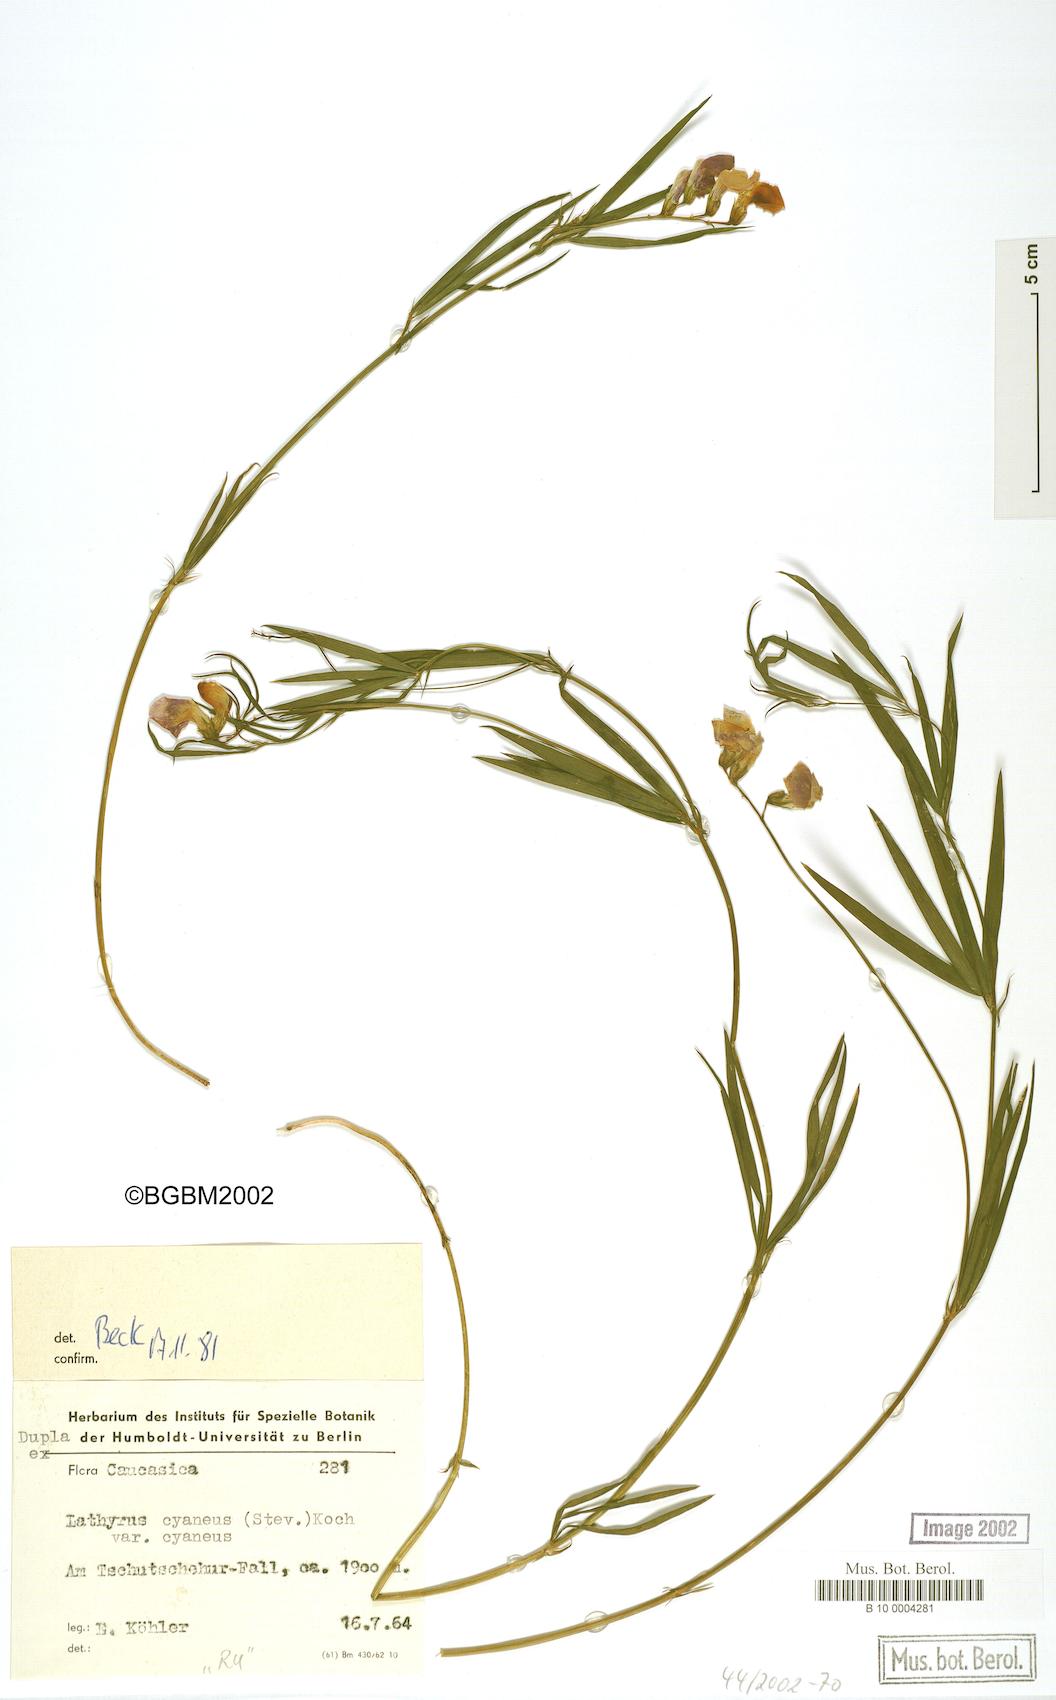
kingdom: Plantae
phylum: Tracheophyta
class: Magnoliopsida
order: Fabales
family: Fabaceae
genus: Lathyrus
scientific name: Lathyrus cyaneus
